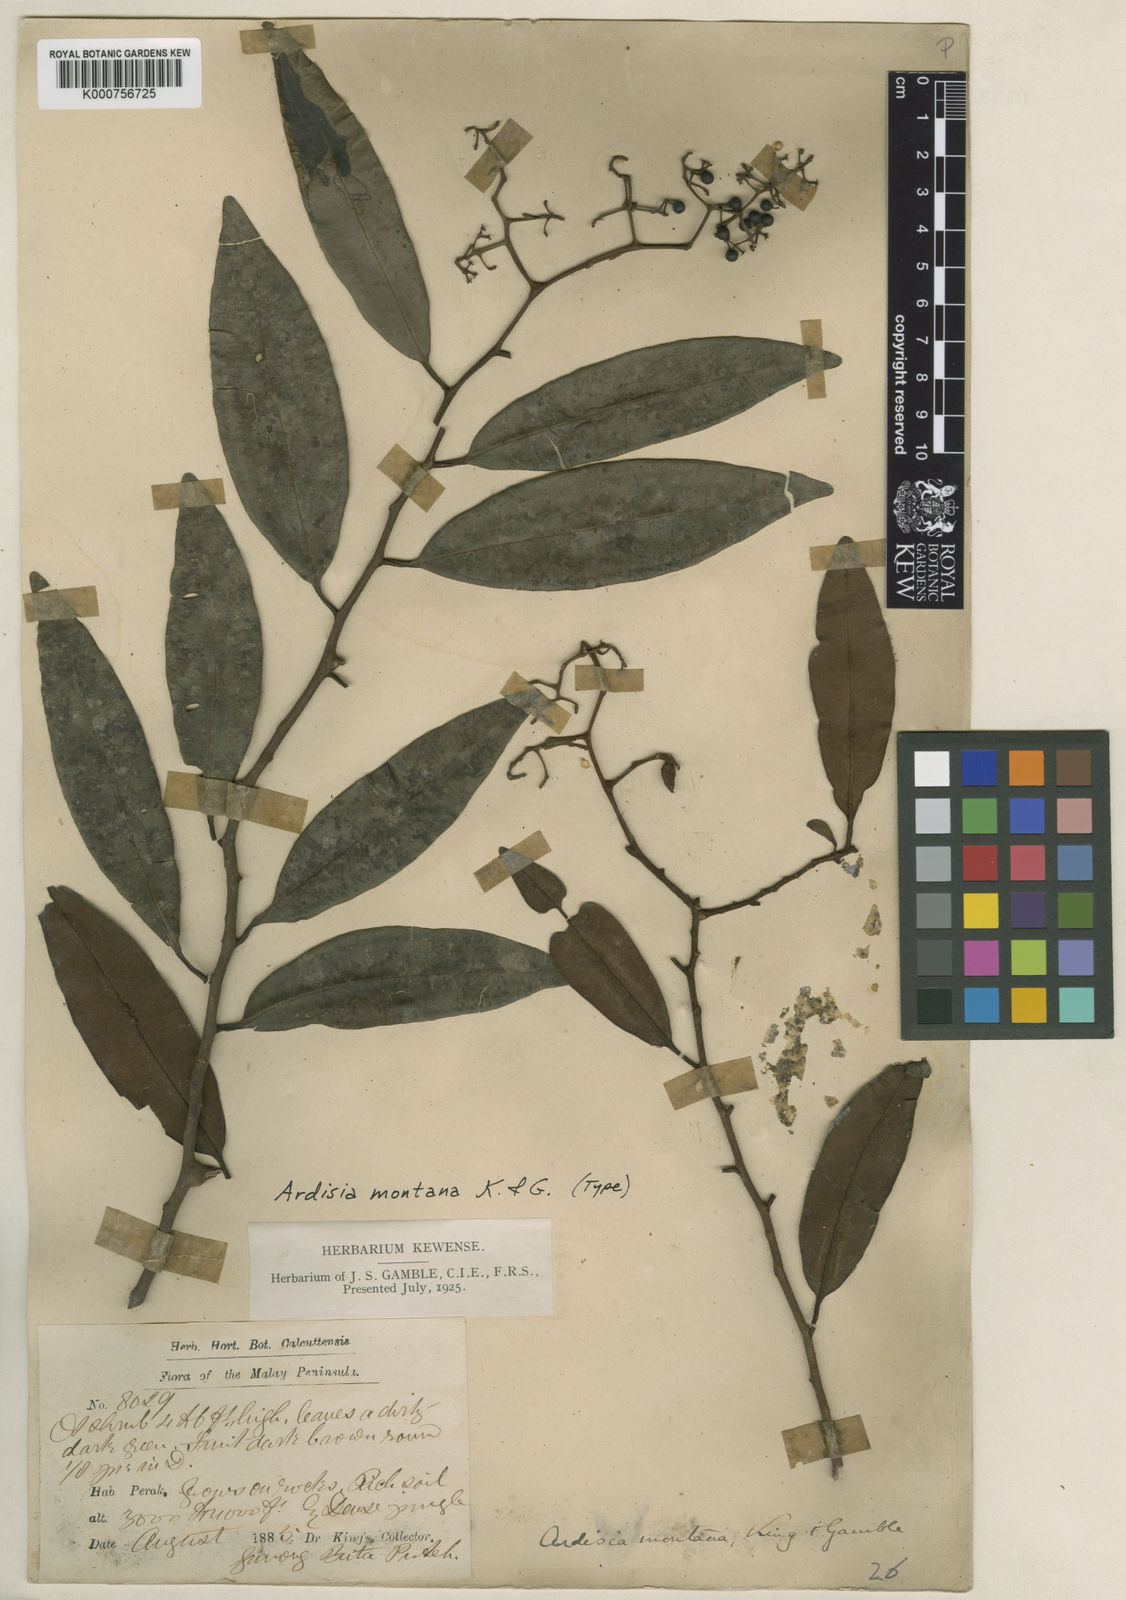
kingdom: Plantae
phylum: Tracheophyta
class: Magnoliopsida
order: Ericales
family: Primulaceae
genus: Ardisia
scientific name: Ardisia lallaniana
